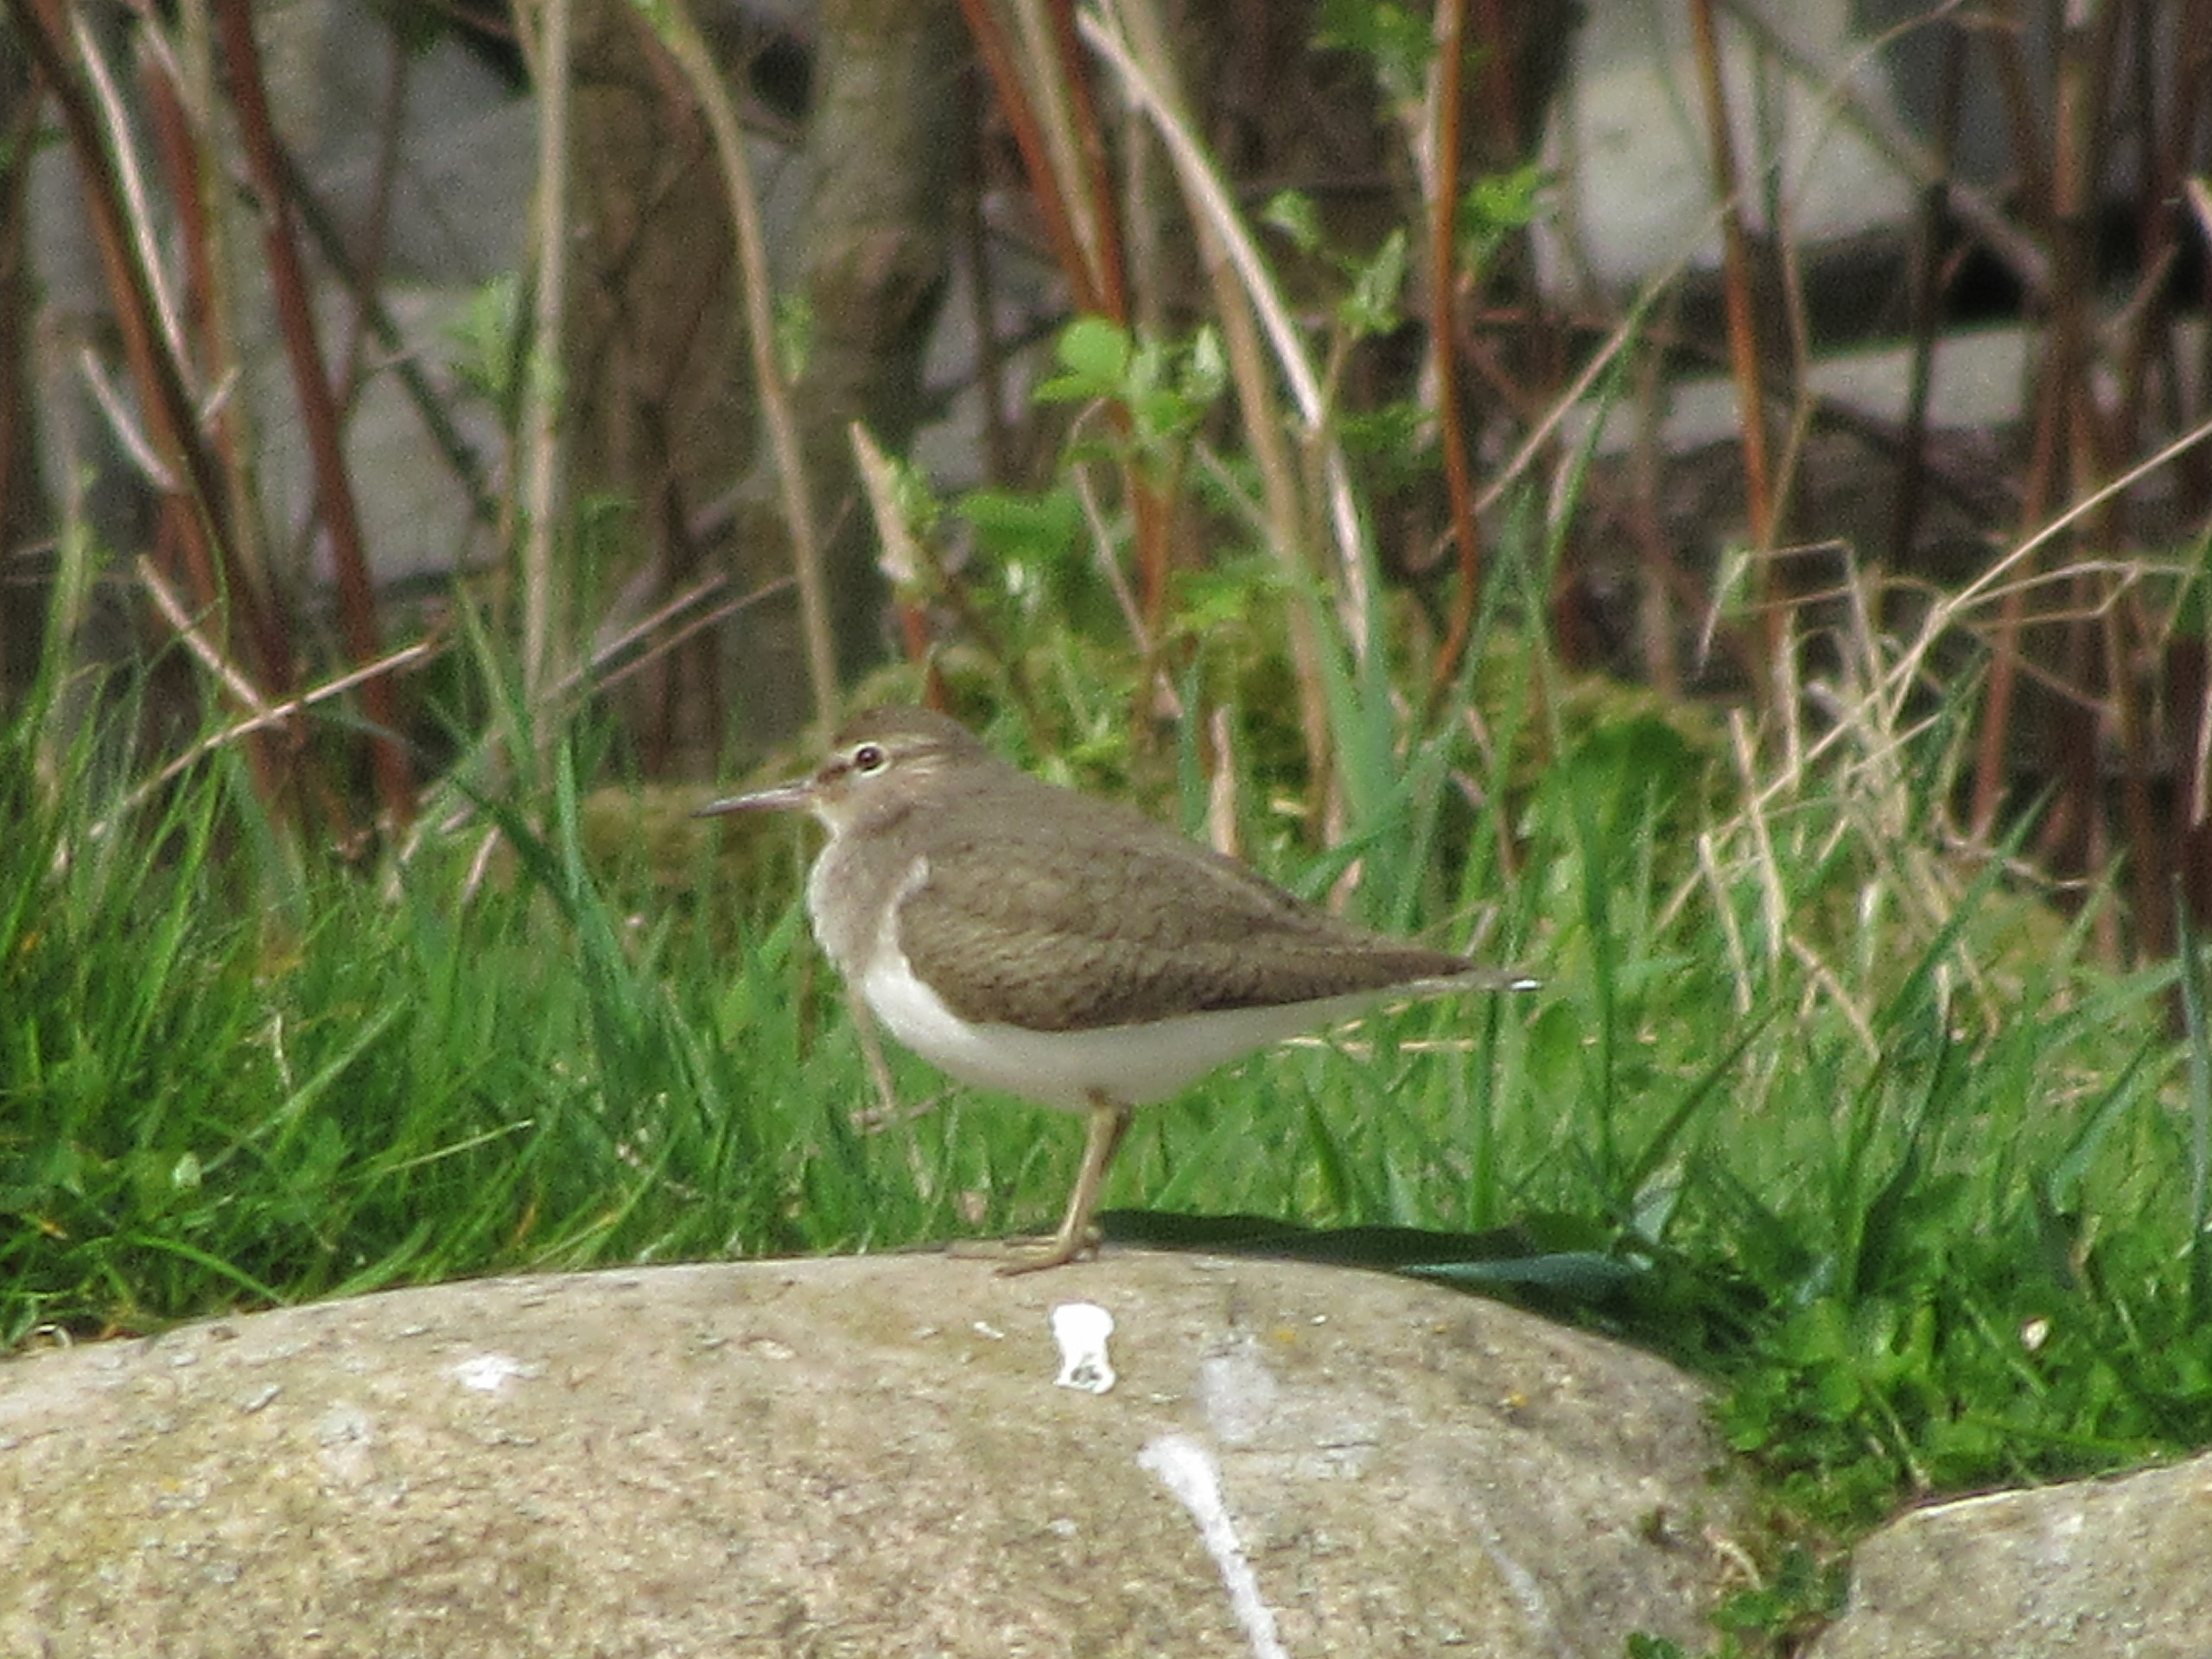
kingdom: Animalia
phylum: Chordata
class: Aves
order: Charadriiformes
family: Scolopacidae
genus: Actitis
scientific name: Actitis hypoleucos
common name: Mudderklire
